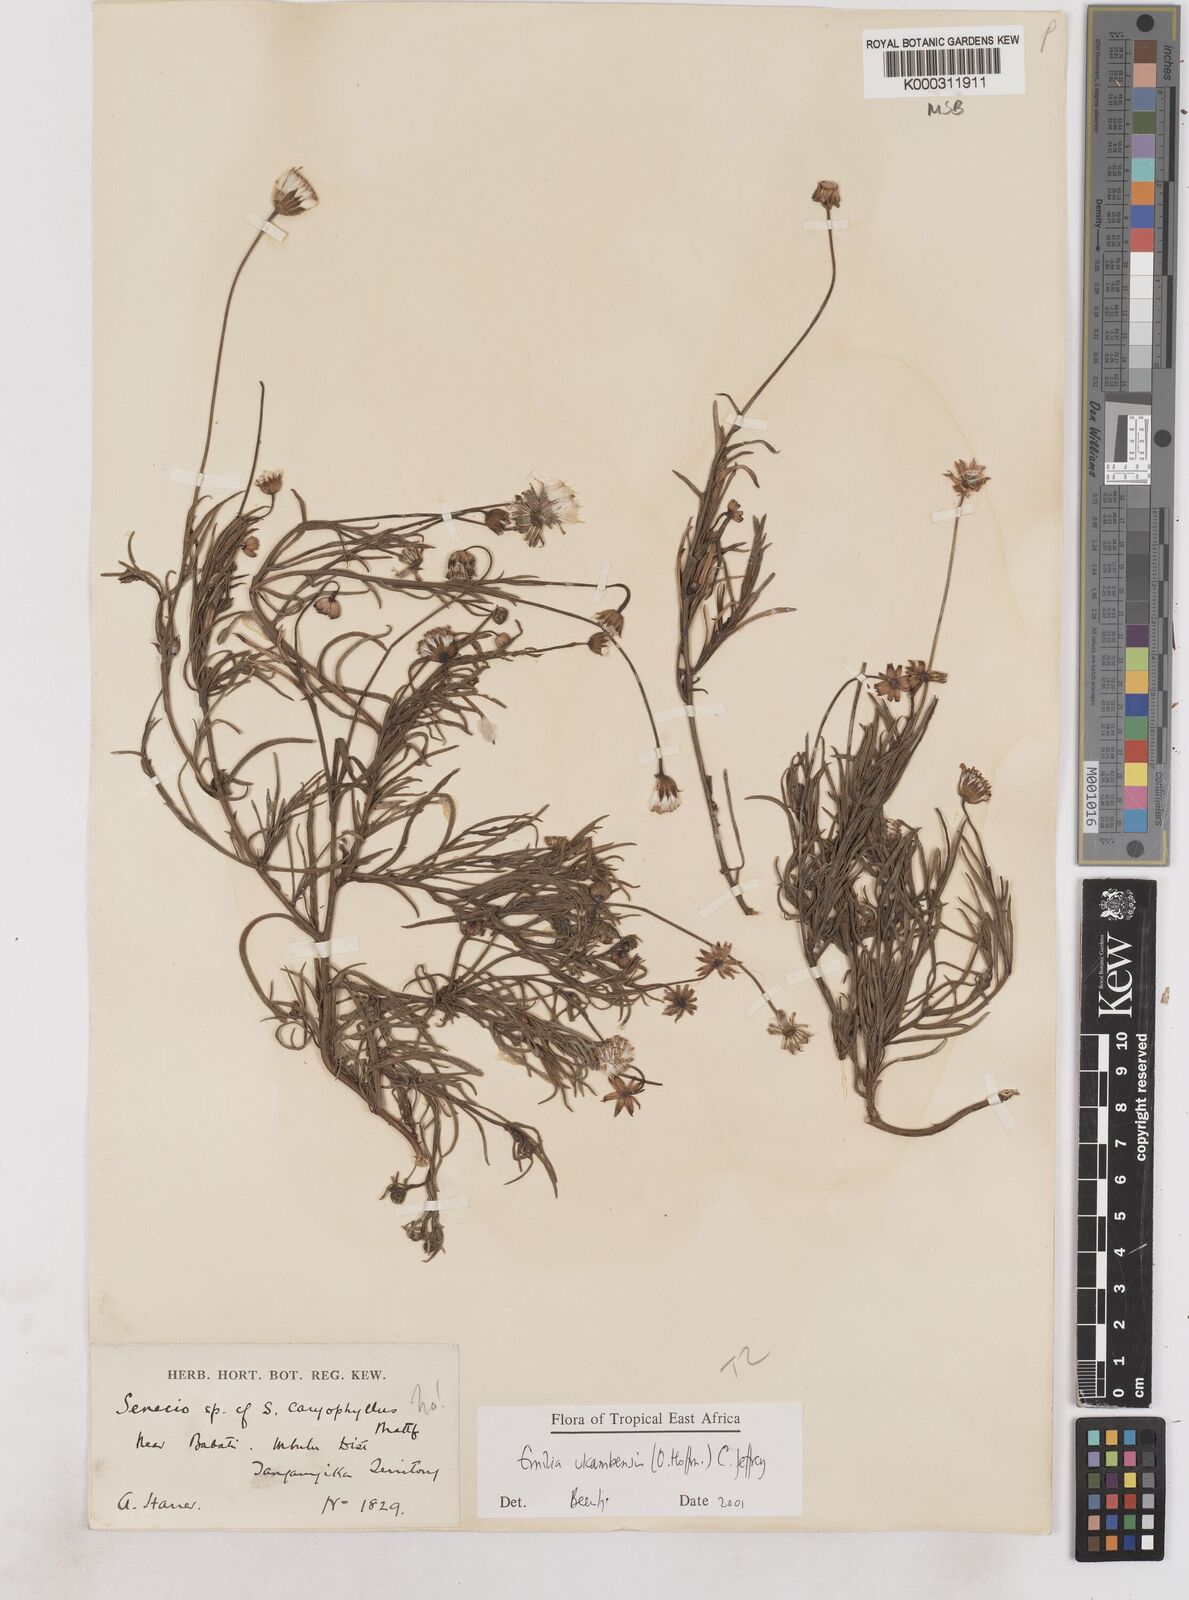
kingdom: Plantae
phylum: Tracheophyta
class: Magnoliopsida
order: Asterales
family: Asteraceae
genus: Emilia
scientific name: Emilia ukambensis
